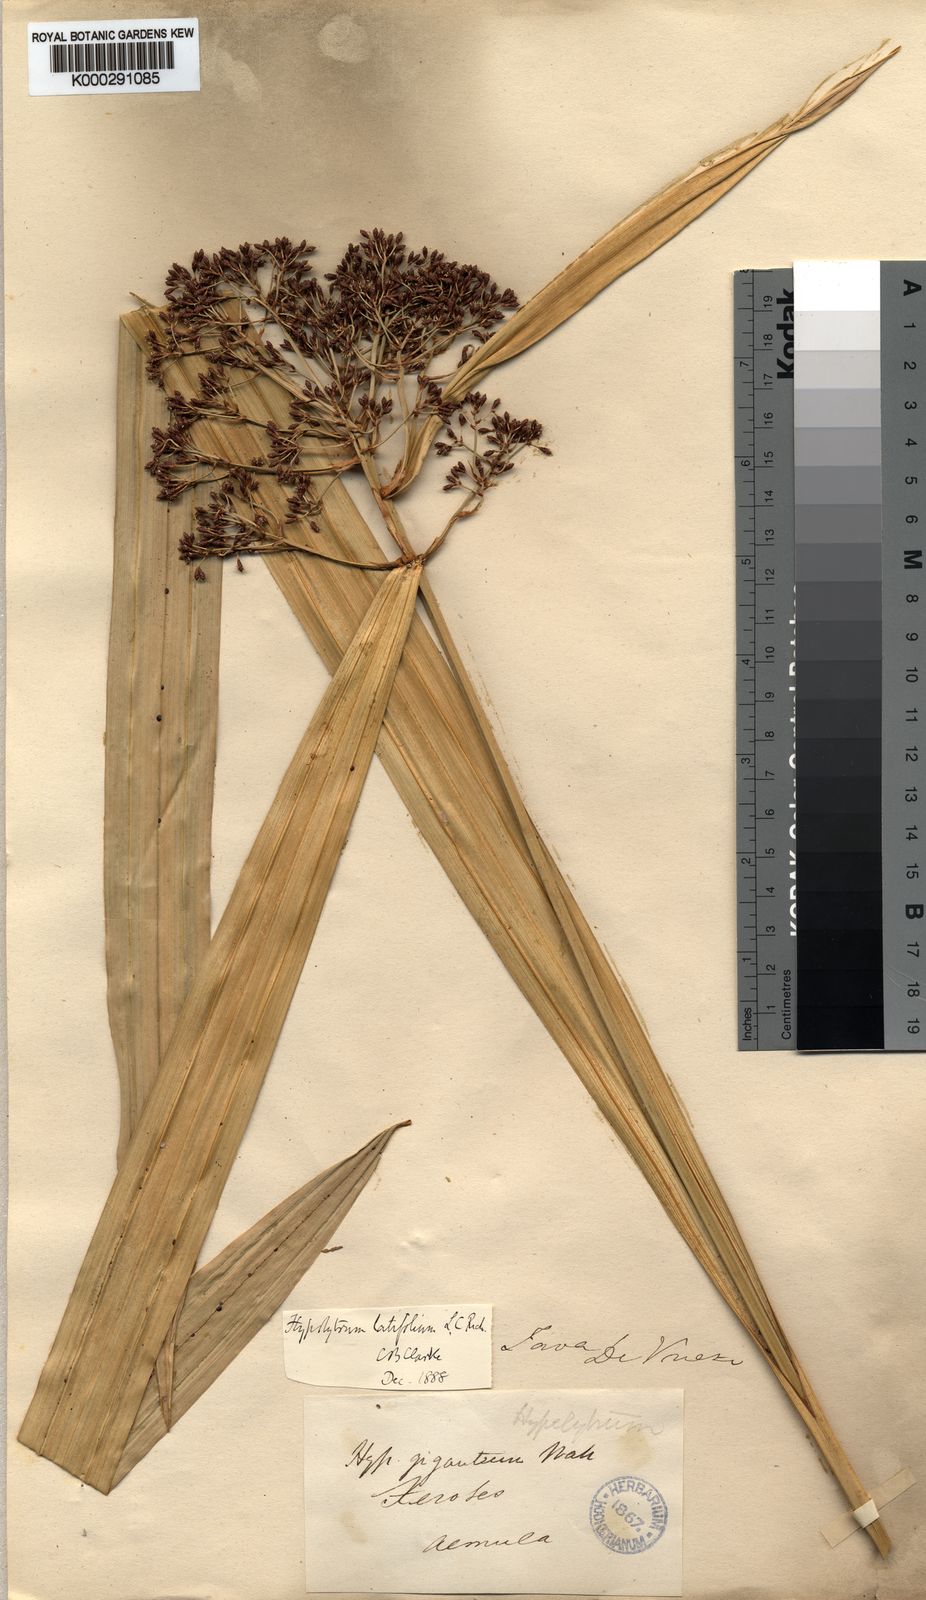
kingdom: Plantae
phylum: Tracheophyta
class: Liliopsida
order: Poales
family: Cyperaceae
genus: Hypolytrum
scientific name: Hypolytrum nemorum
